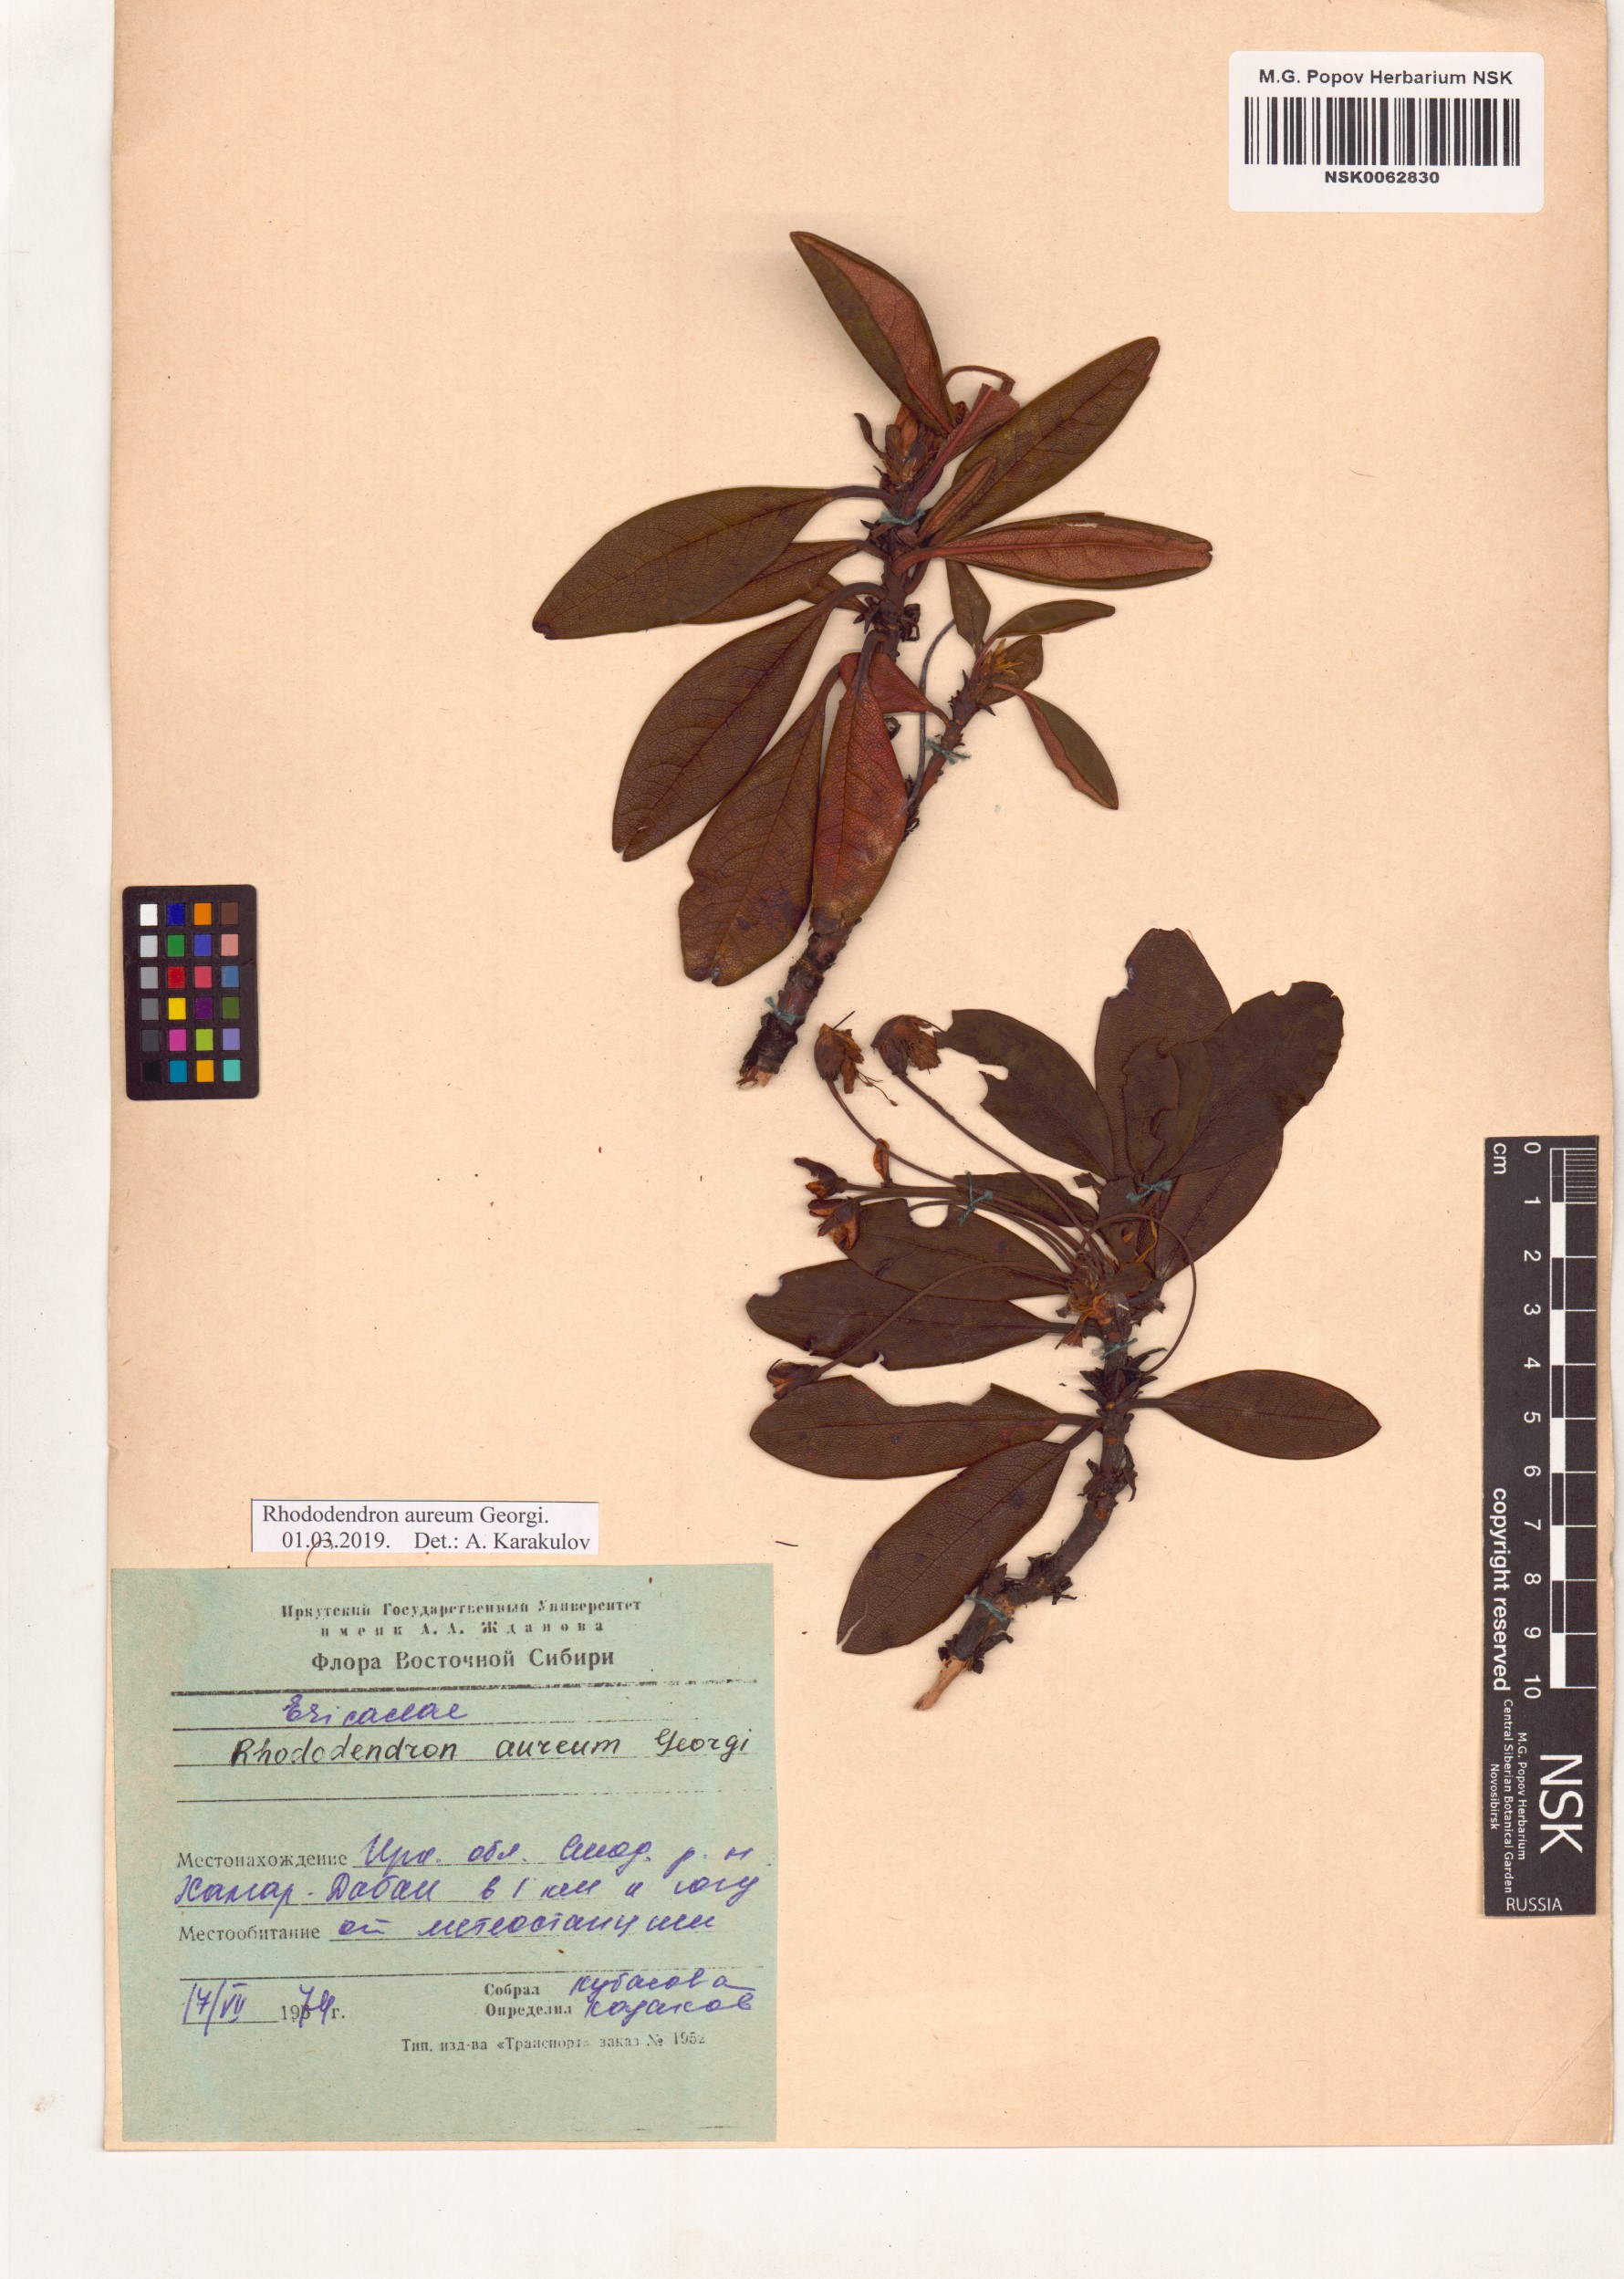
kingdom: Plantae
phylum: Tracheophyta
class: Magnoliopsida
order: Ericales
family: Ericaceae
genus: Rhododendron
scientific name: Rhododendron aureum
